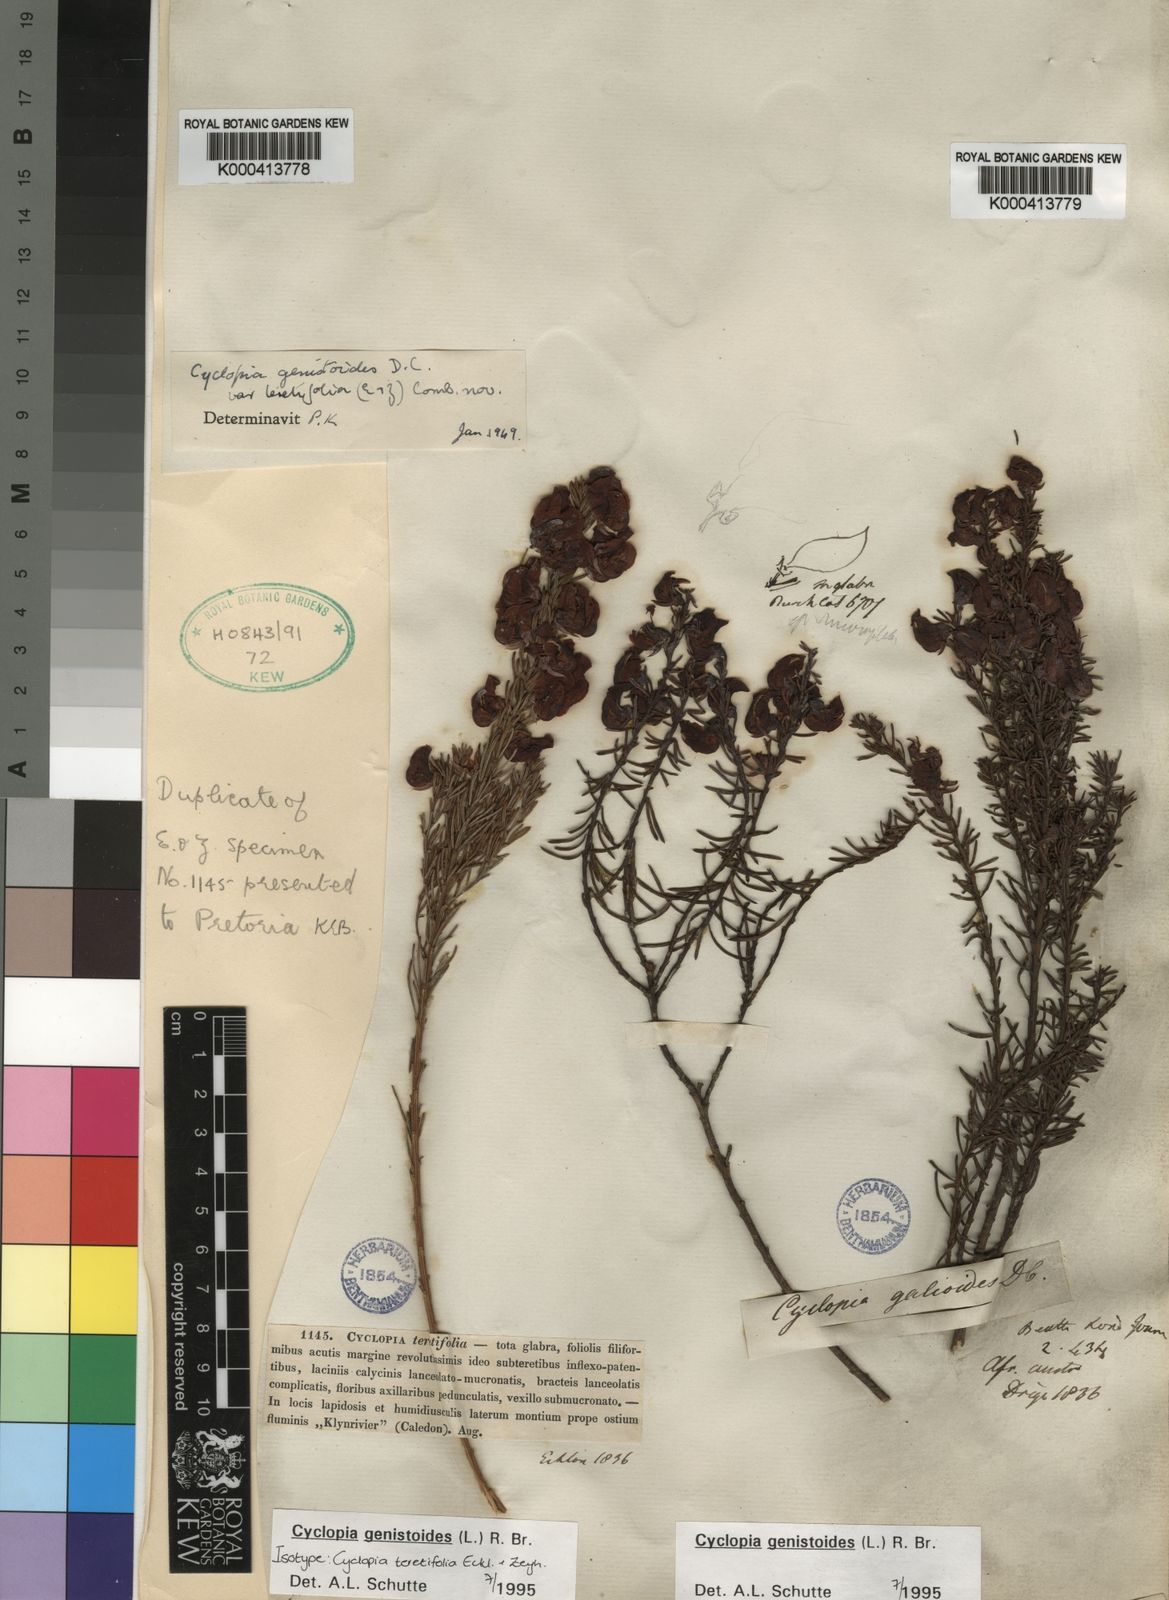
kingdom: Plantae
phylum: Tracheophyta
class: Magnoliopsida
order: Fabales
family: Fabaceae
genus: Cyclopia
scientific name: Cyclopia genistoides
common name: Honeybush tea
